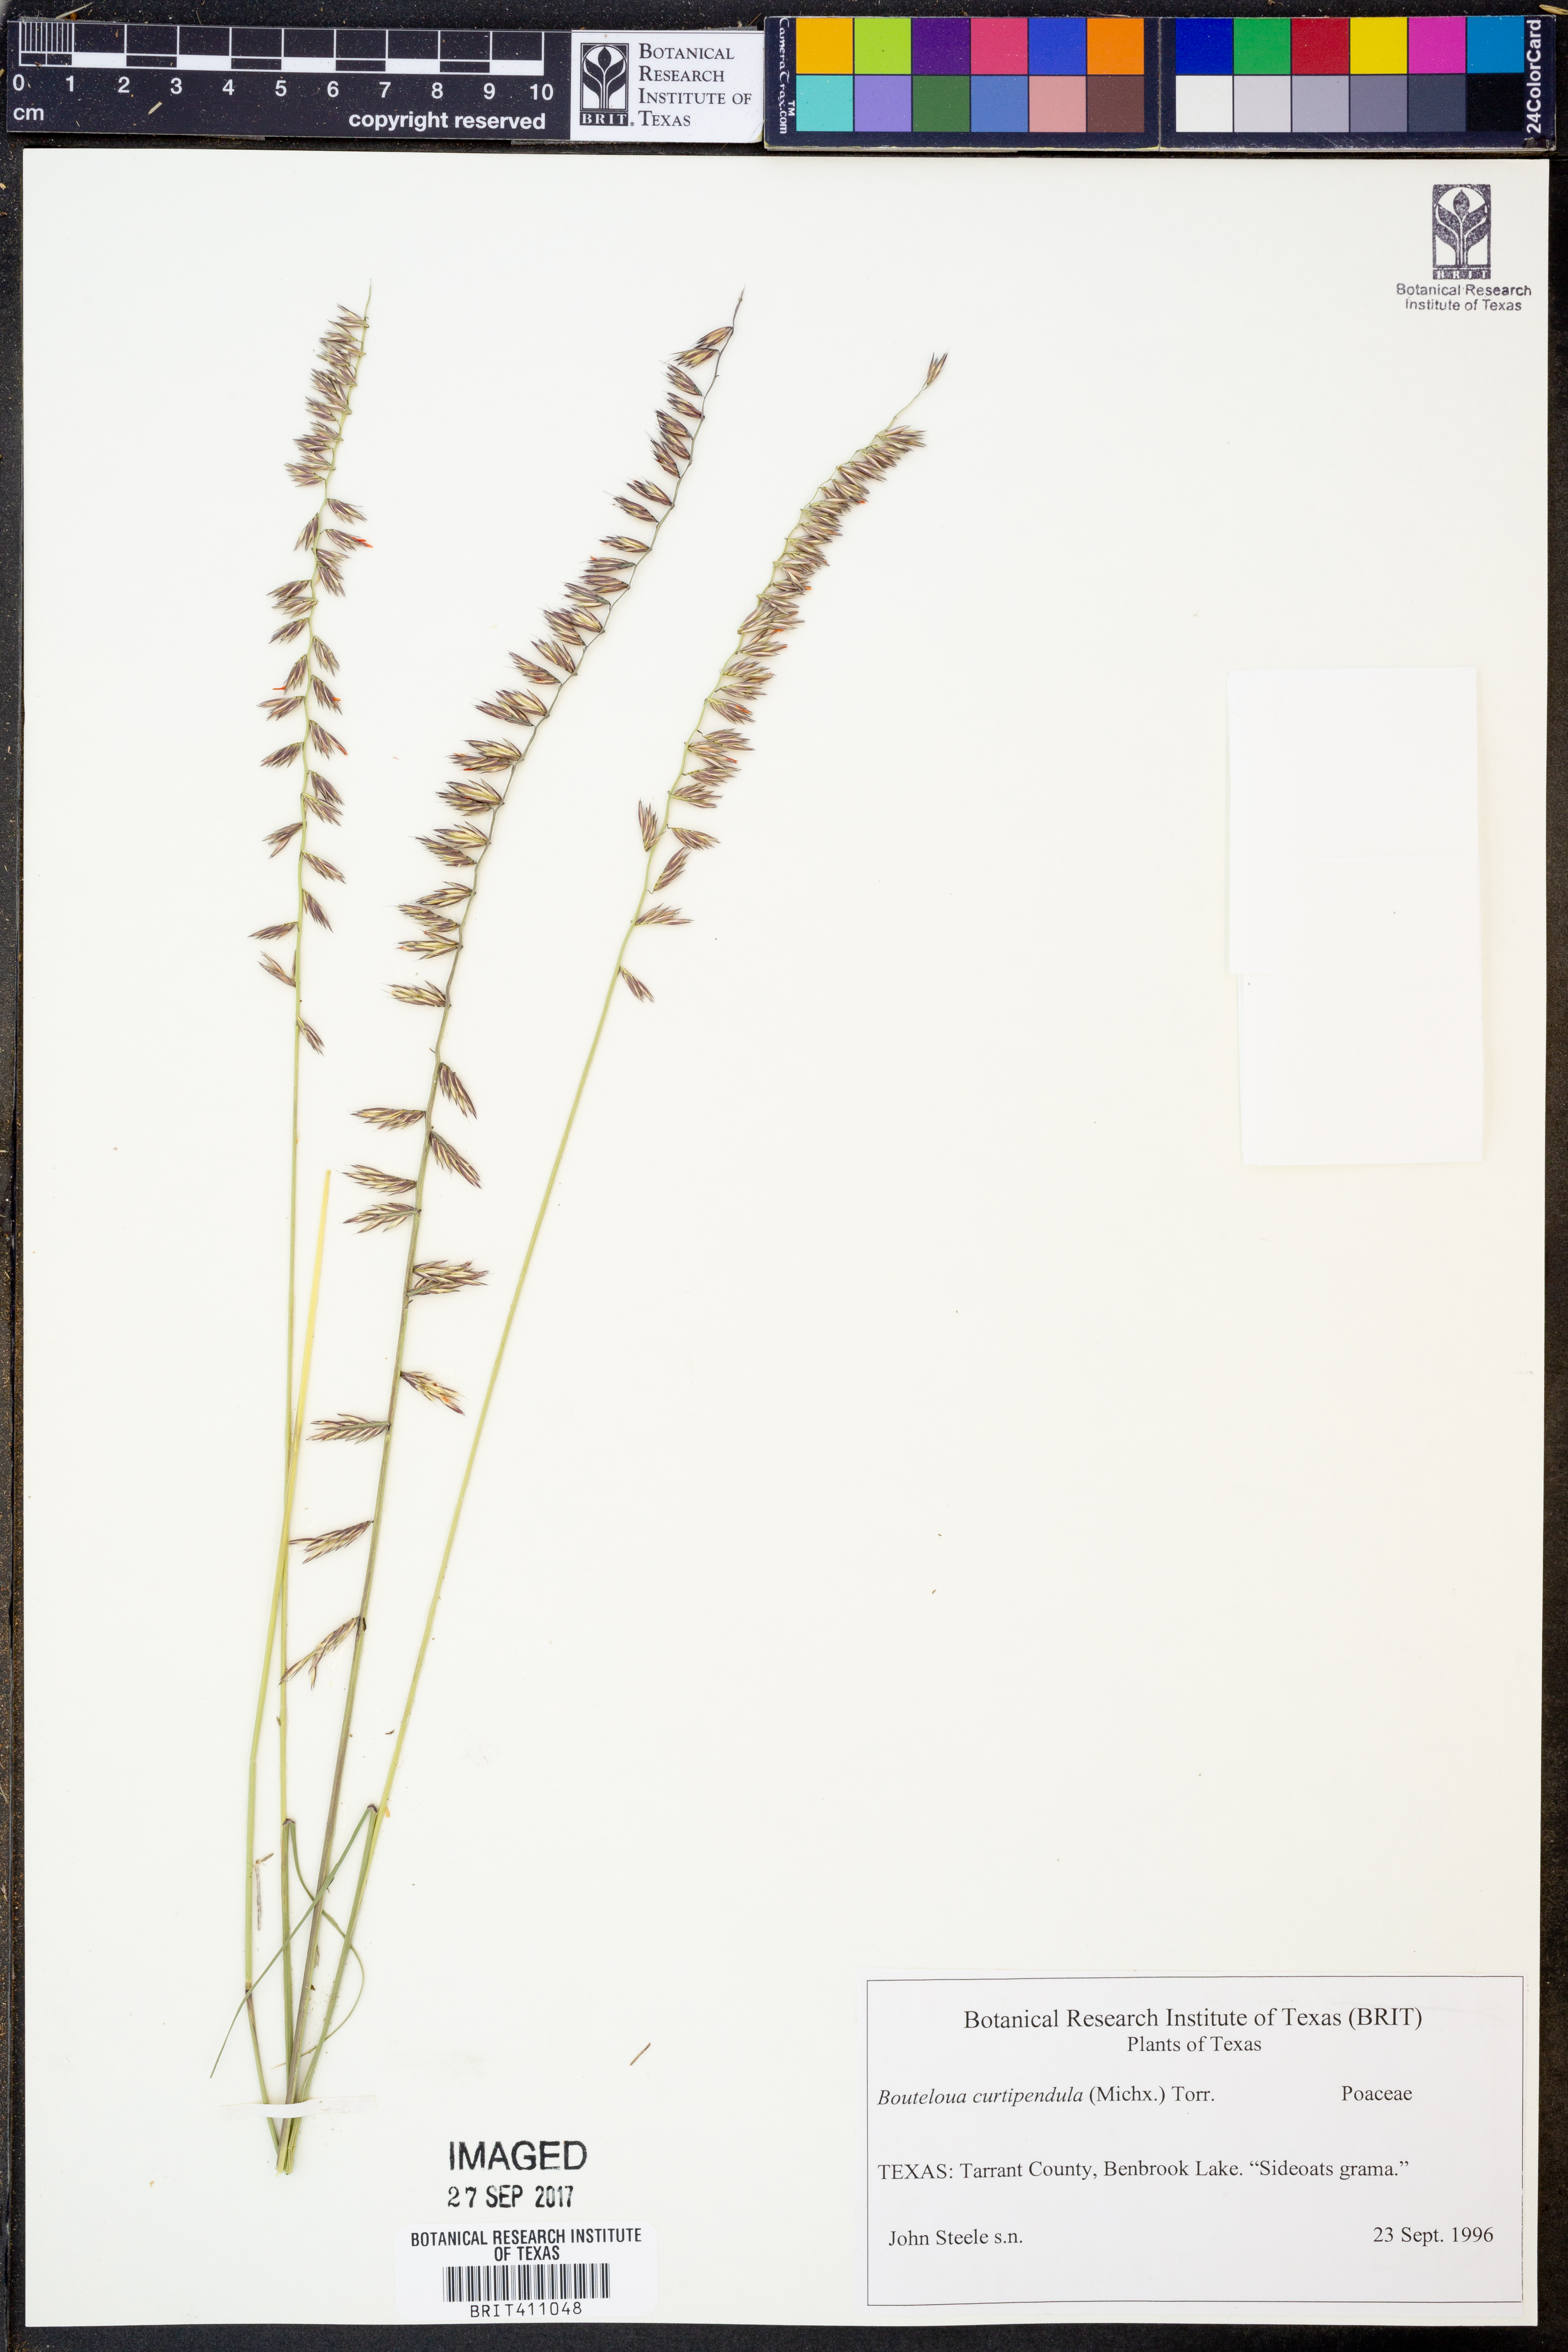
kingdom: Plantae
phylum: Tracheophyta
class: Liliopsida
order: Poales
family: Poaceae
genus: Bouteloua
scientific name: Bouteloua curtipendula
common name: Side-oats grama
